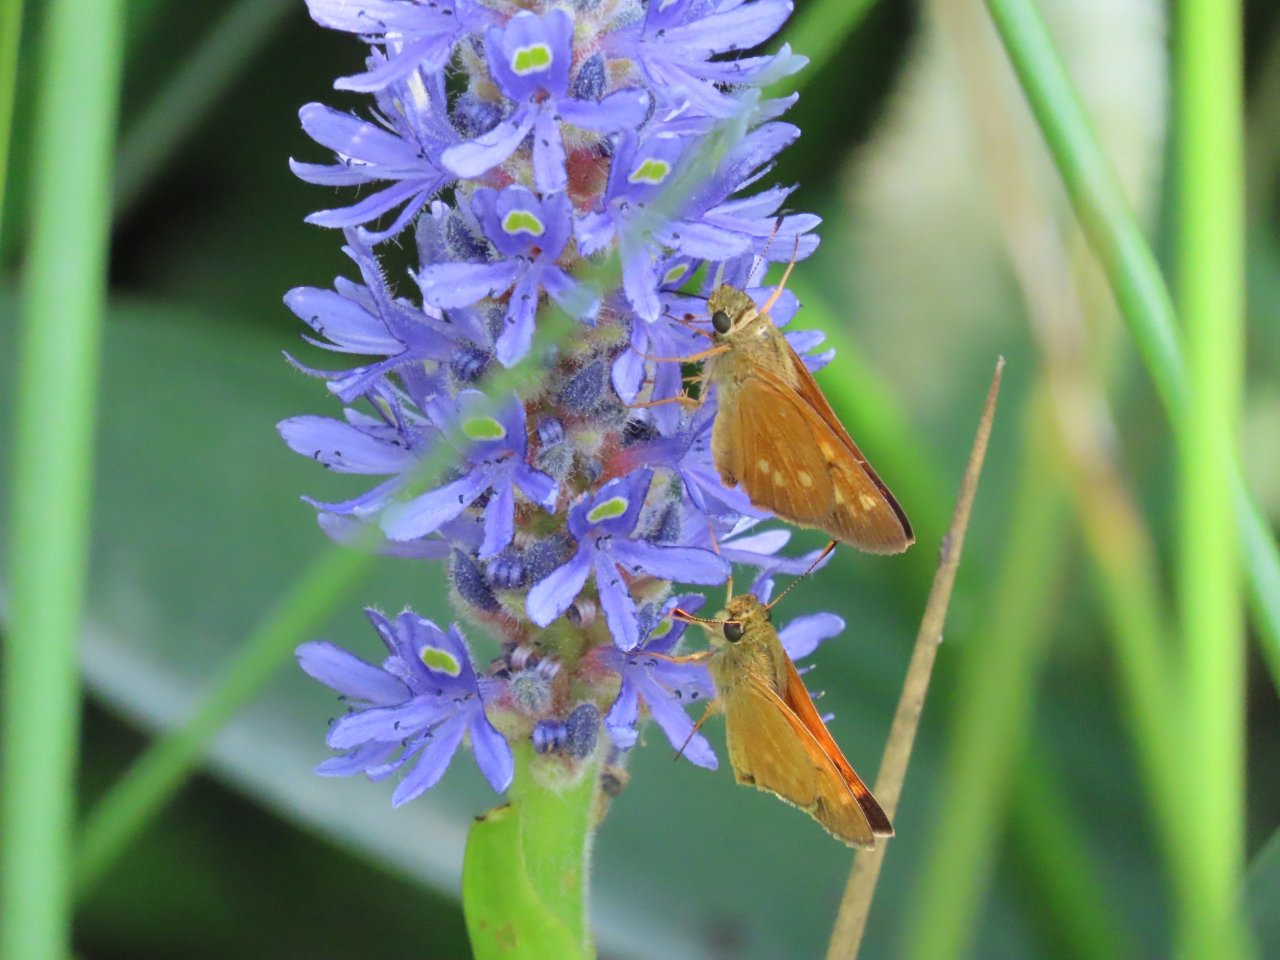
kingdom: Animalia
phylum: Arthropoda
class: Insecta
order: Lepidoptera
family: Hesperiidae
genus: Poanes
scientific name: Poanes yehl
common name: Yehl Skipper
